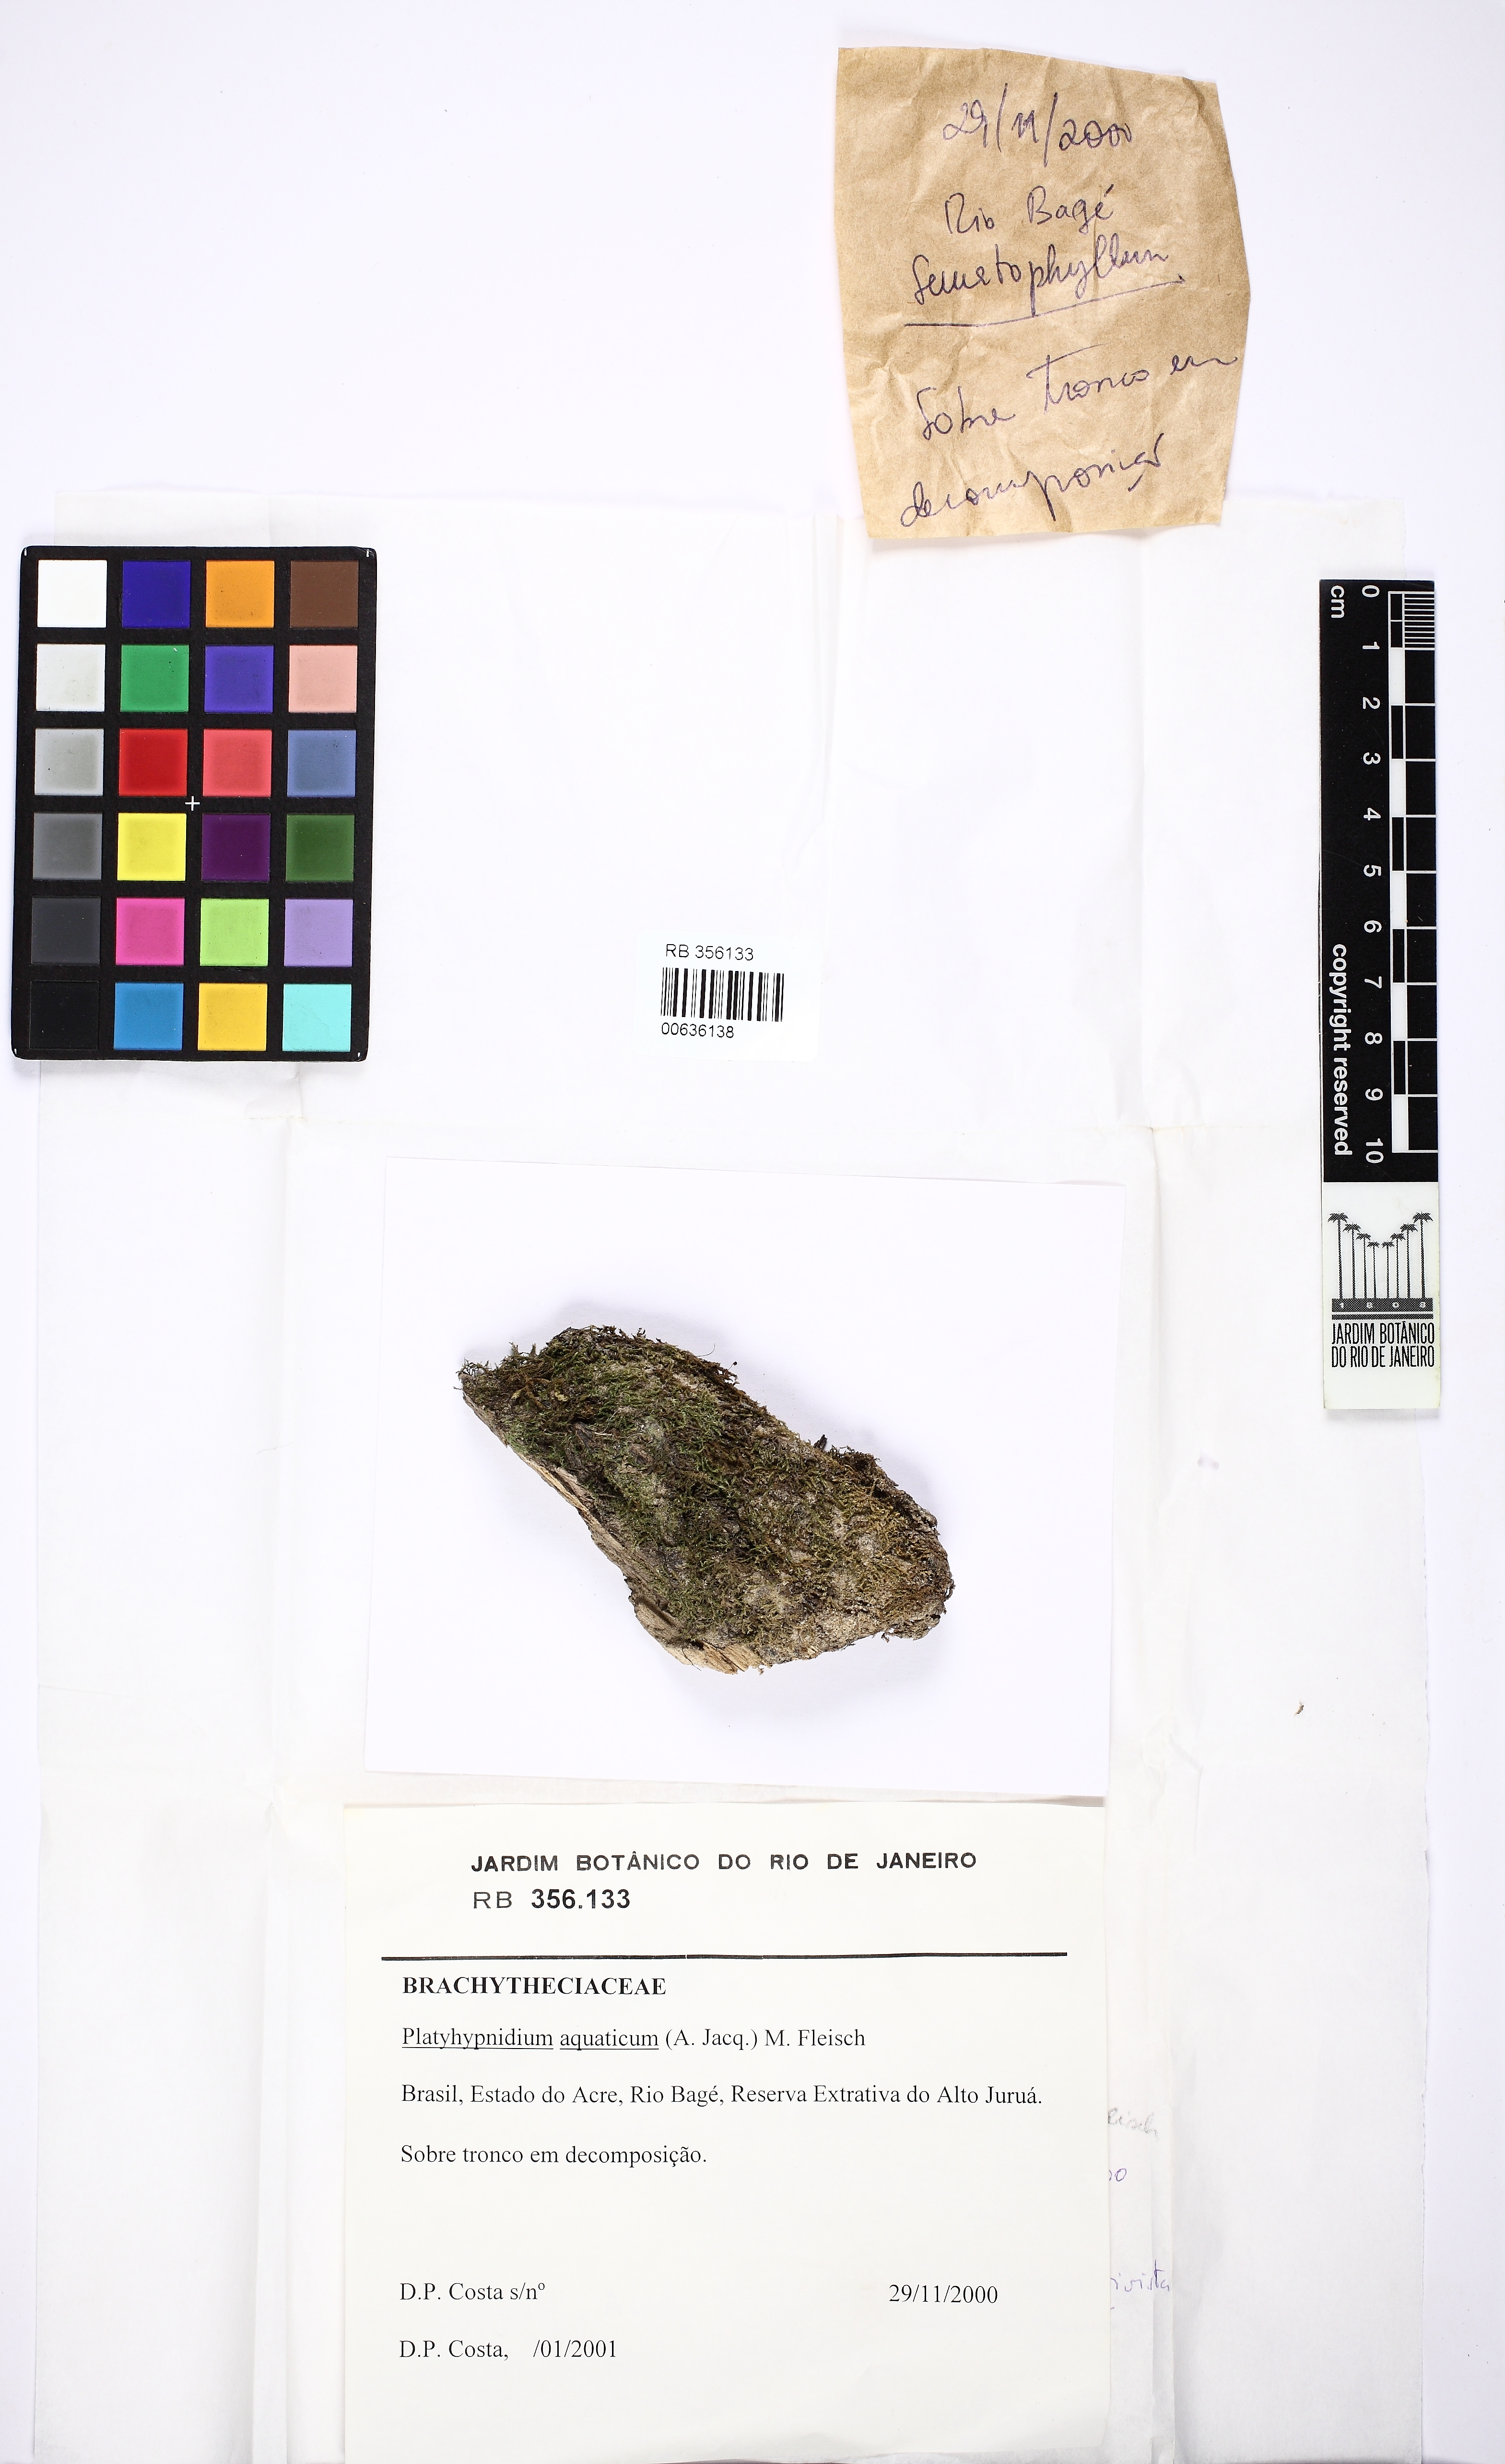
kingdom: Plantae
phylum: Bryophyta
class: Bryopsida
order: Hypnales
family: Brachytheciaceae
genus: Rhynchostegium
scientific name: Rhynchostegium aquaticum
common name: Aquatic long-beaked moss
